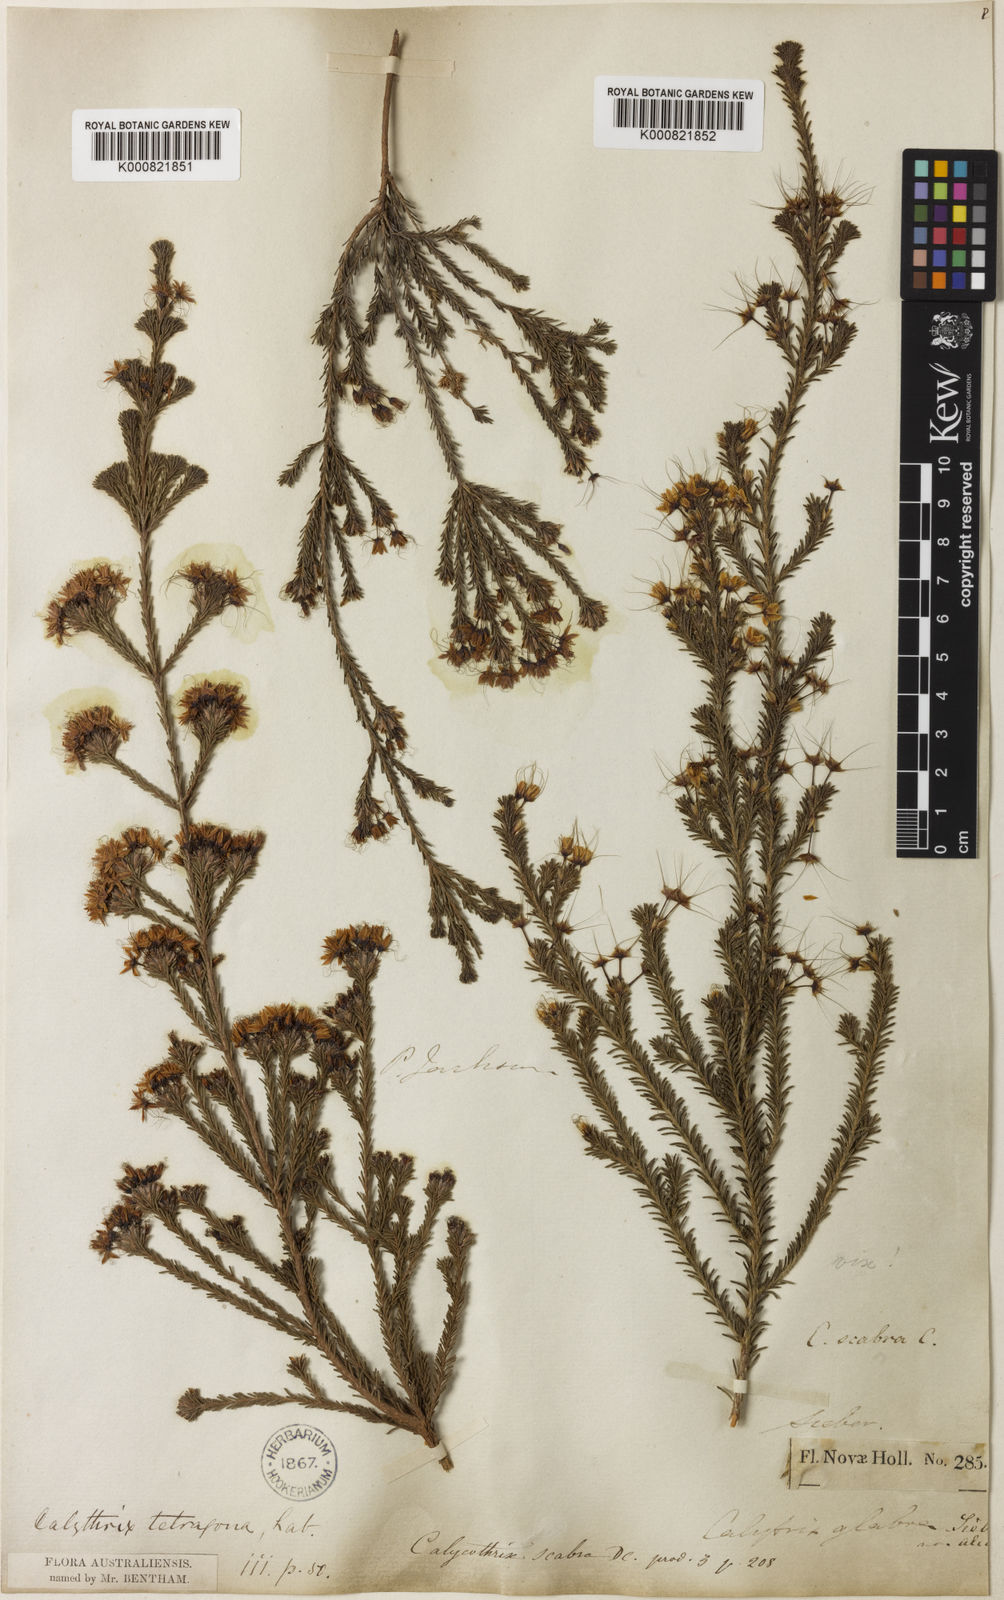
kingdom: Plantae
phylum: Tracheophyta
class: Magnoliopsida
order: Myrtales
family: Myrtaceae
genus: Calytrix
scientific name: Calytrix tetragona
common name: Common fringe myrtle
